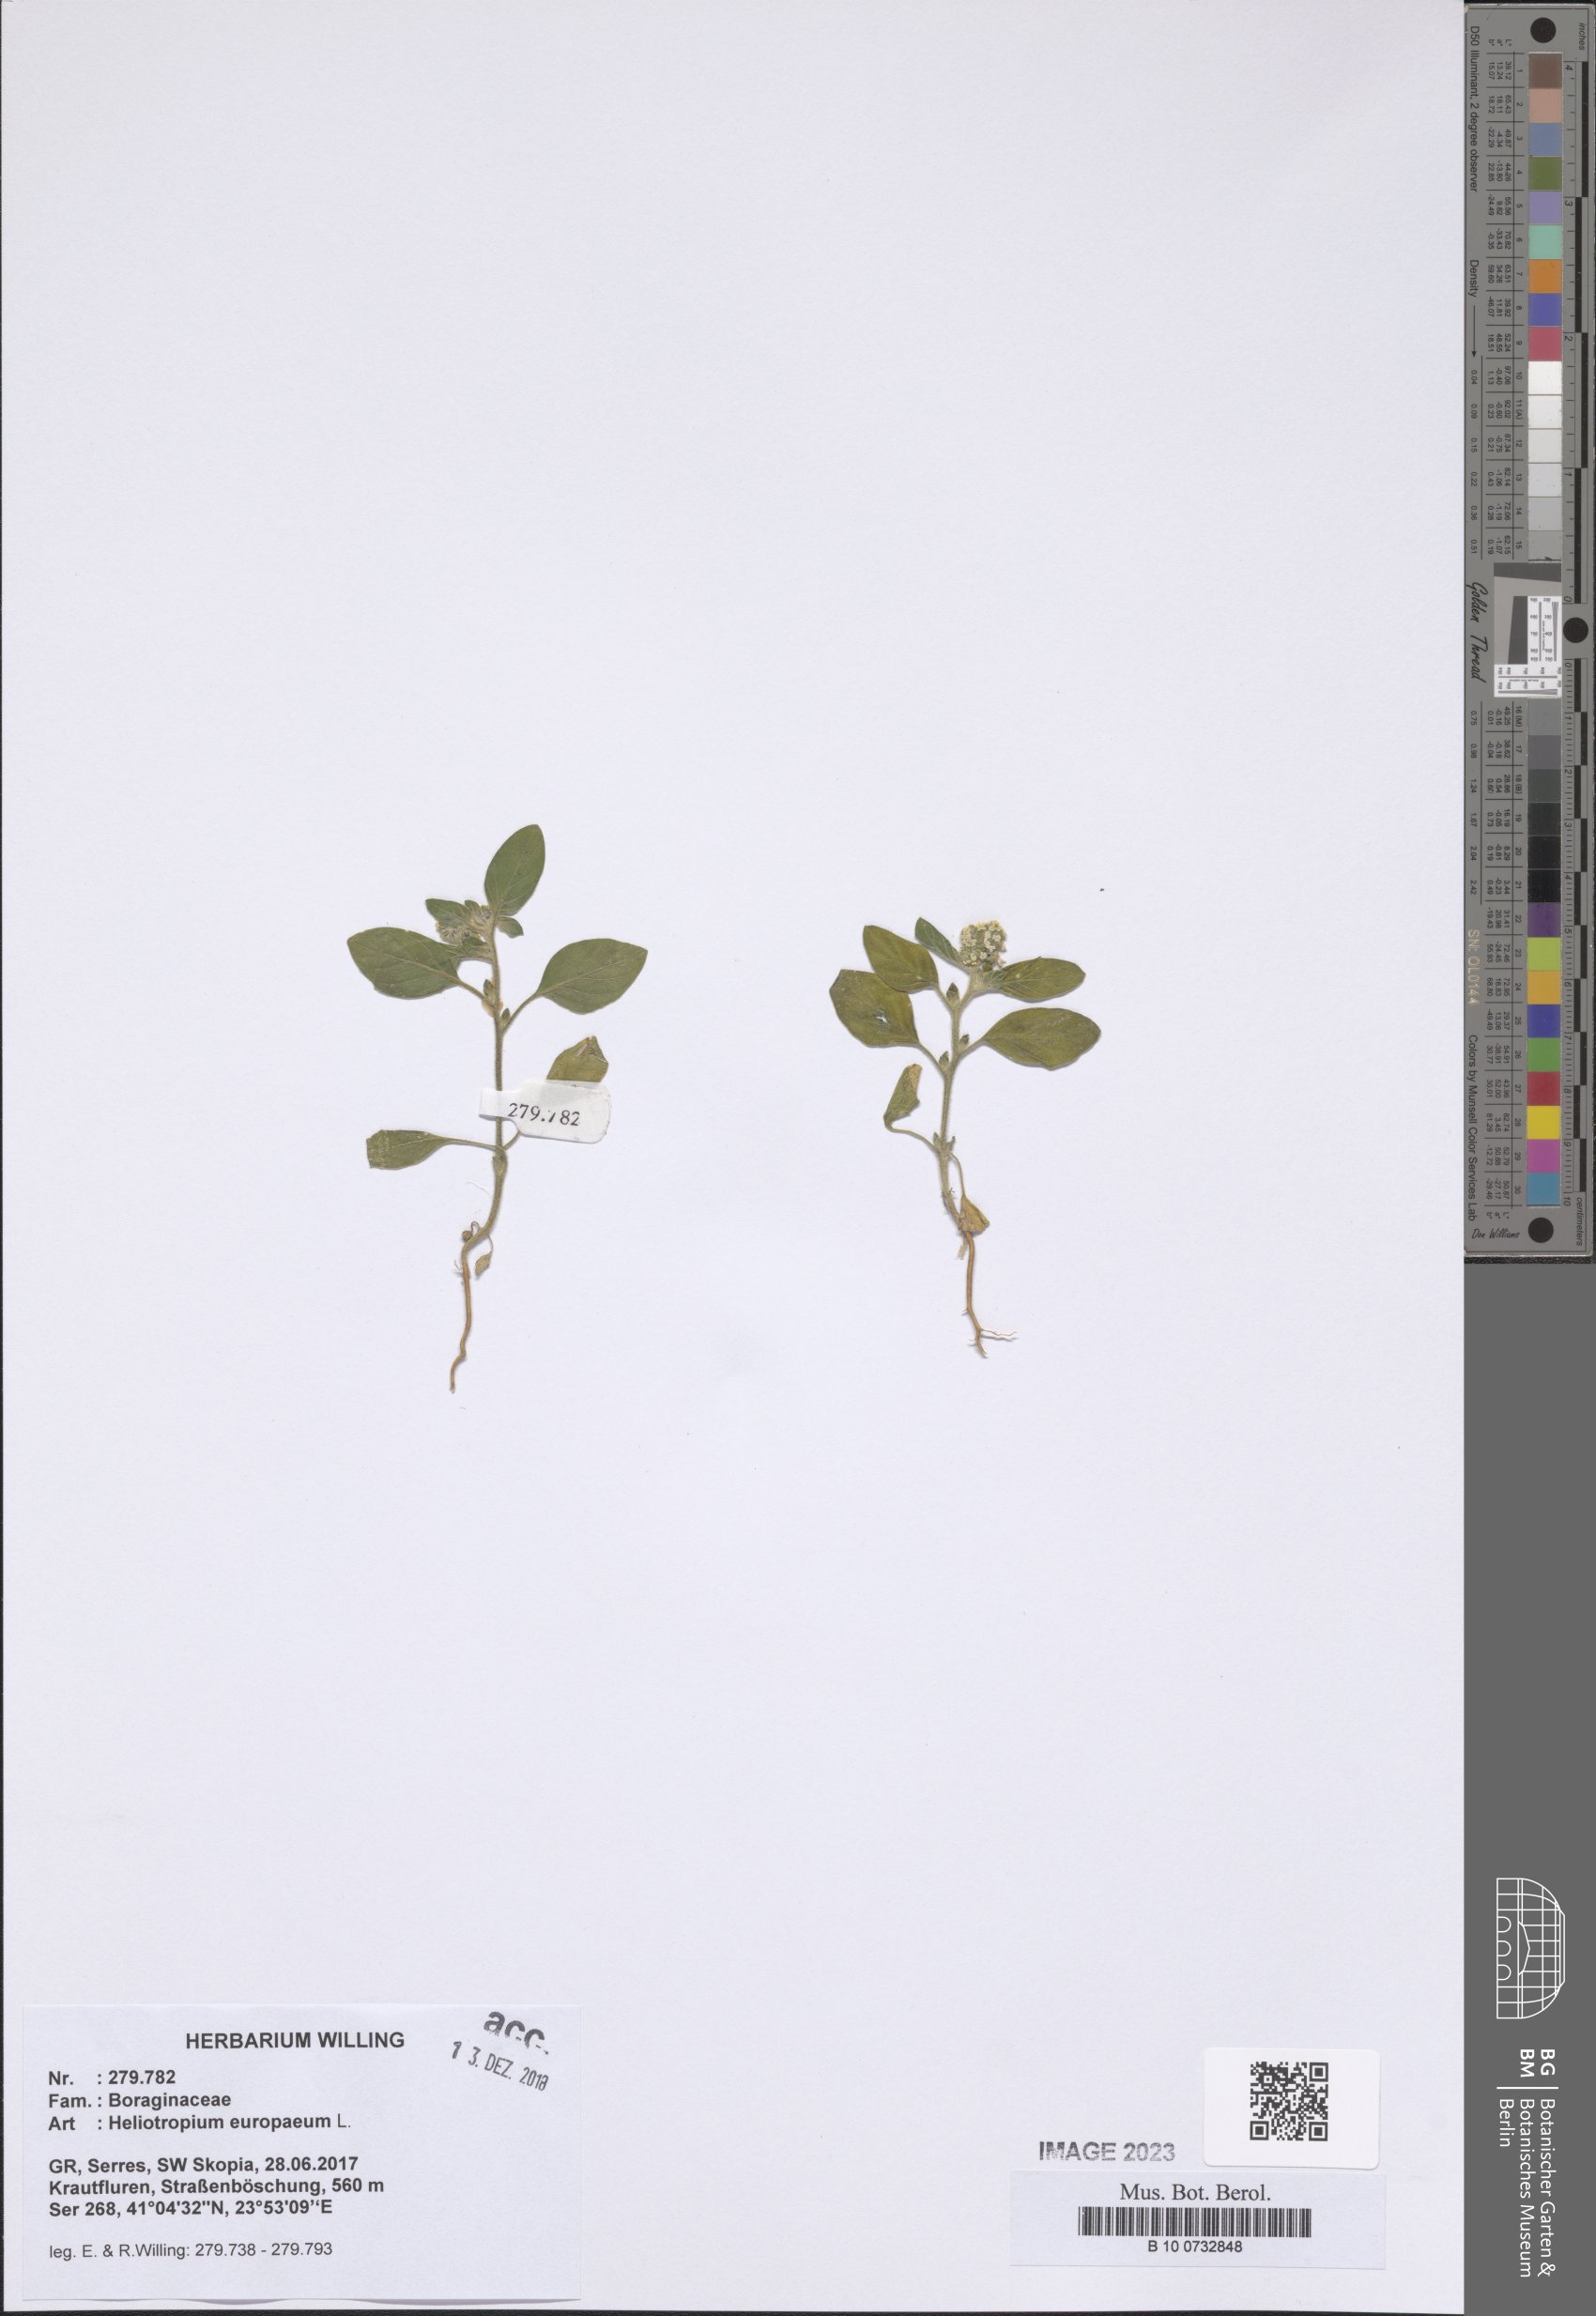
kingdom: Plantae
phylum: Tracheophyta
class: Magnoliopsida
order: Boraginales
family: Heliotropiaceae
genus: Heliotropium
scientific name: Heliotropium europaeum
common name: European heliotrope
